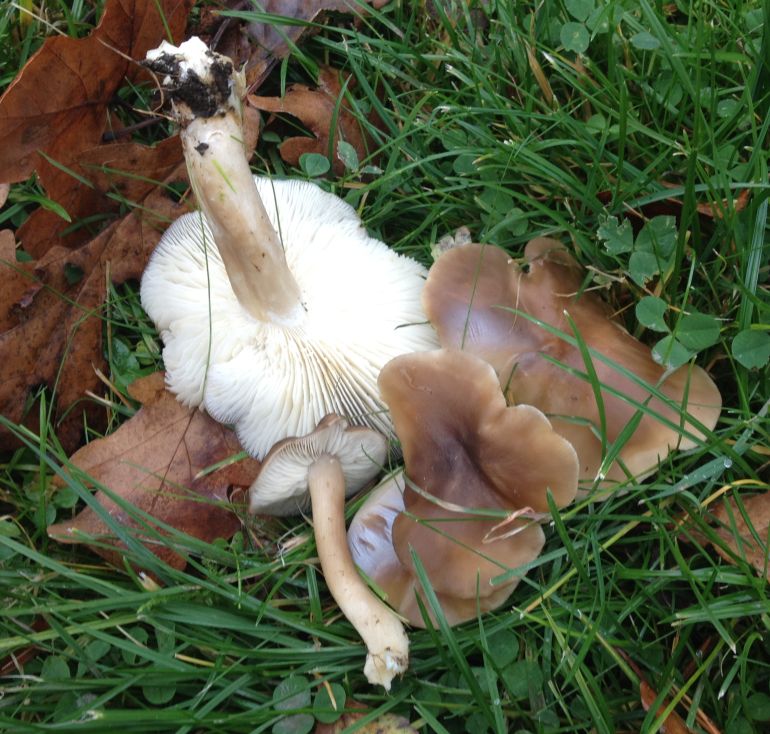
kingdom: Fungi
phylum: Basidiomycota
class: Agaricomycetes
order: Agaricales
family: Lyophyllaceae
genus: Lyophyllum
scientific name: Lyophyllum decastes
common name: røggrå gråblad
